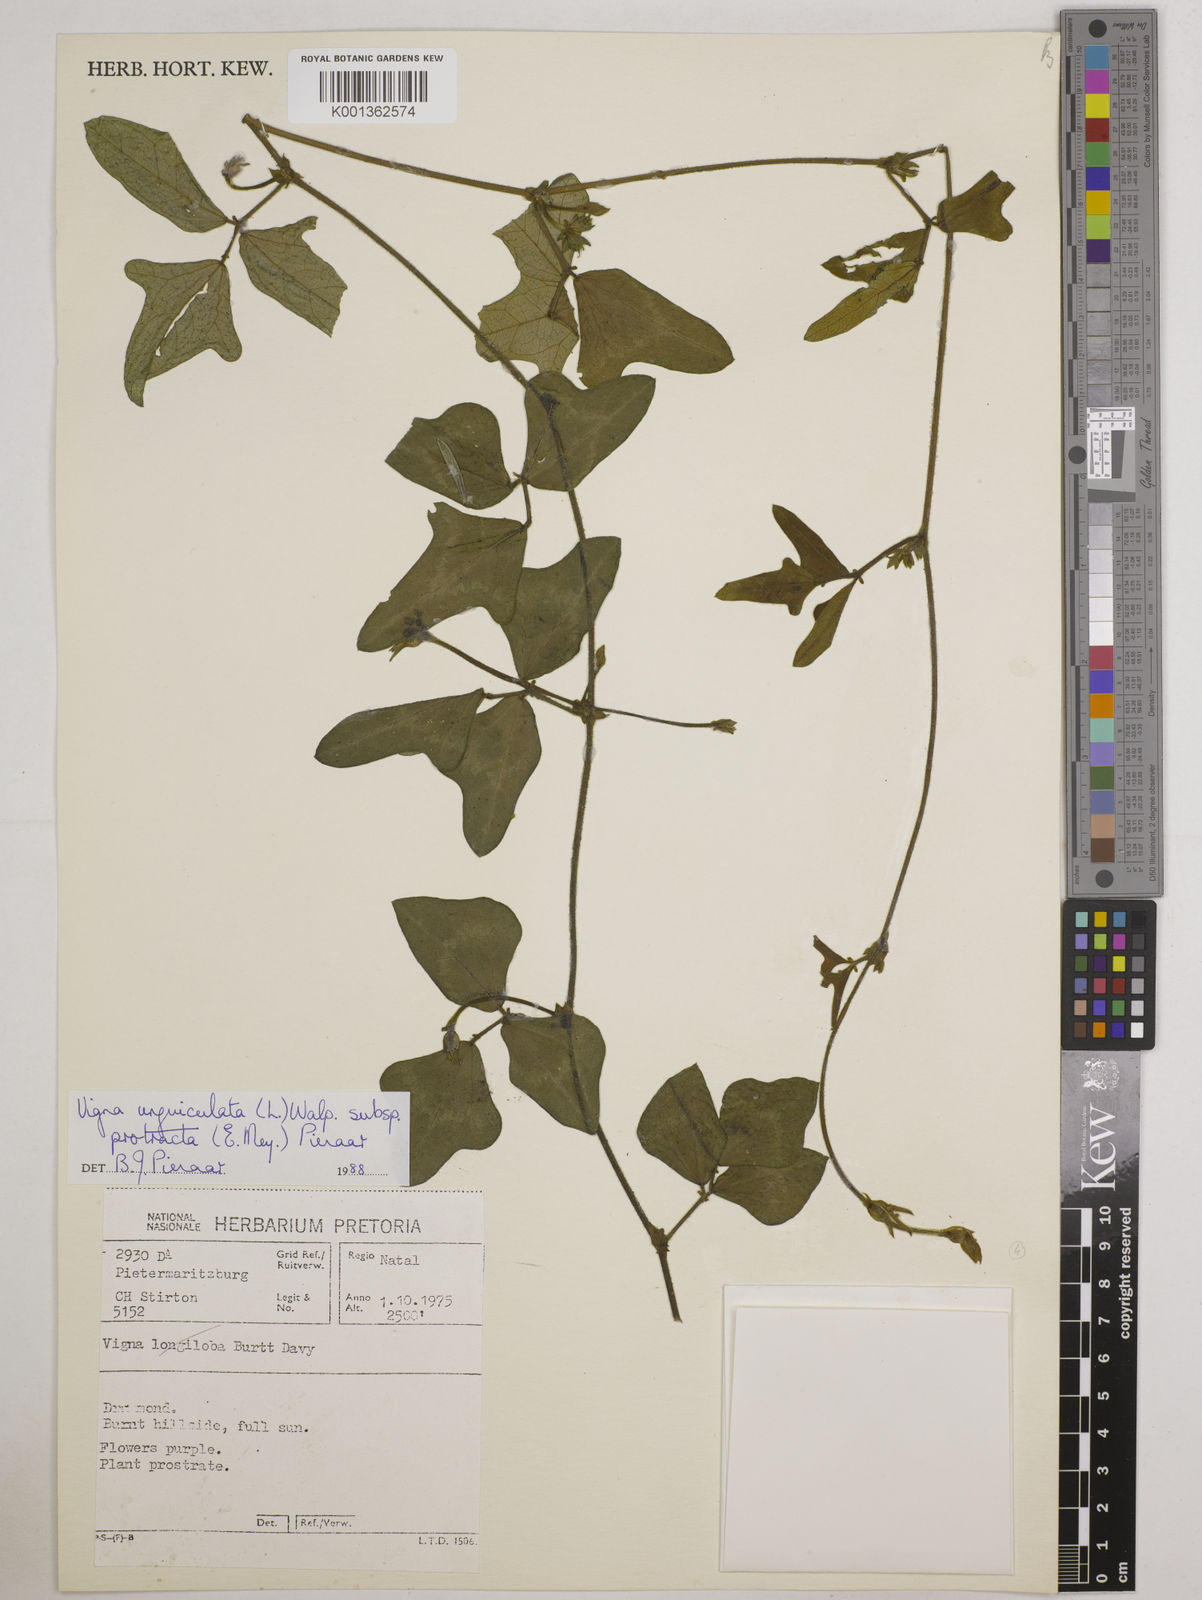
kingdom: Plantae
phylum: Tracheophyta
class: Magnoliopsida
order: Fabales
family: Fabaceae
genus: Vigna
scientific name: Vigna unguiculata
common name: Cowpea
